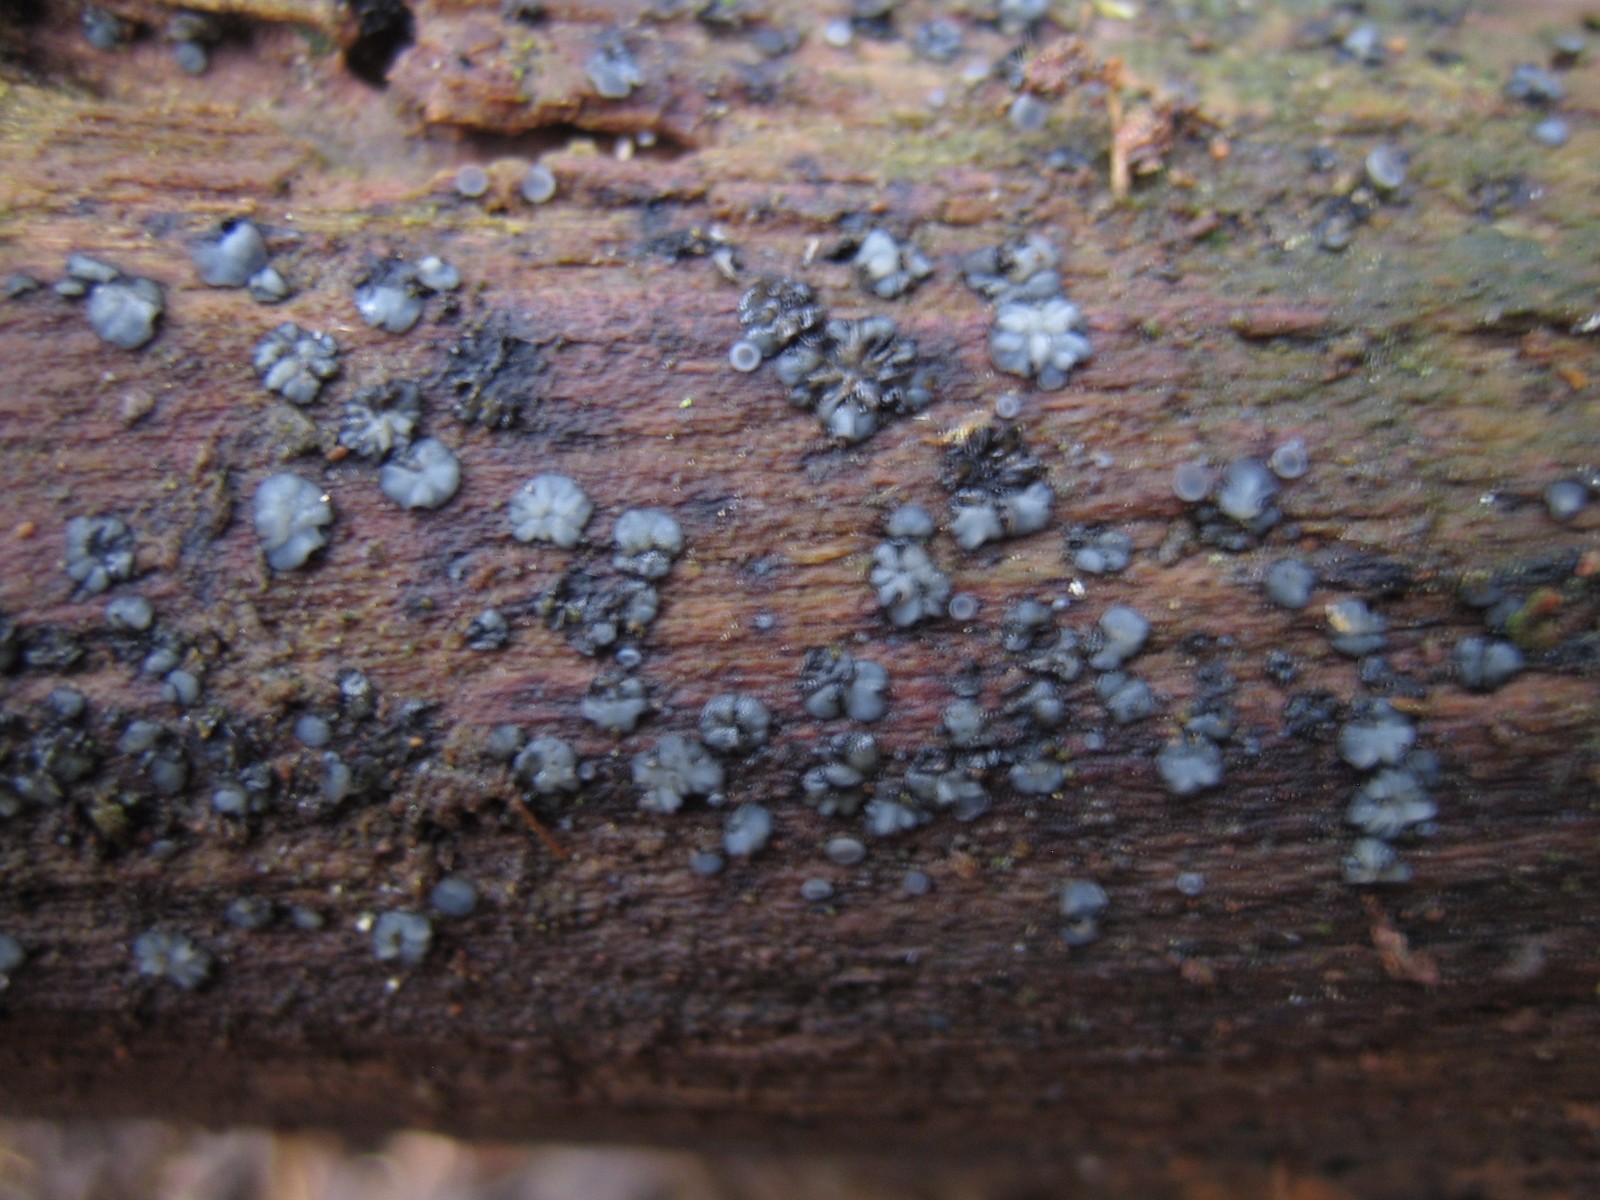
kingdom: Fungi
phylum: Ascomycota
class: Leotiomycetes
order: Helotiales
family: Mollisiaceae
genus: Mollisia
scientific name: Mollisia
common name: gråskive
